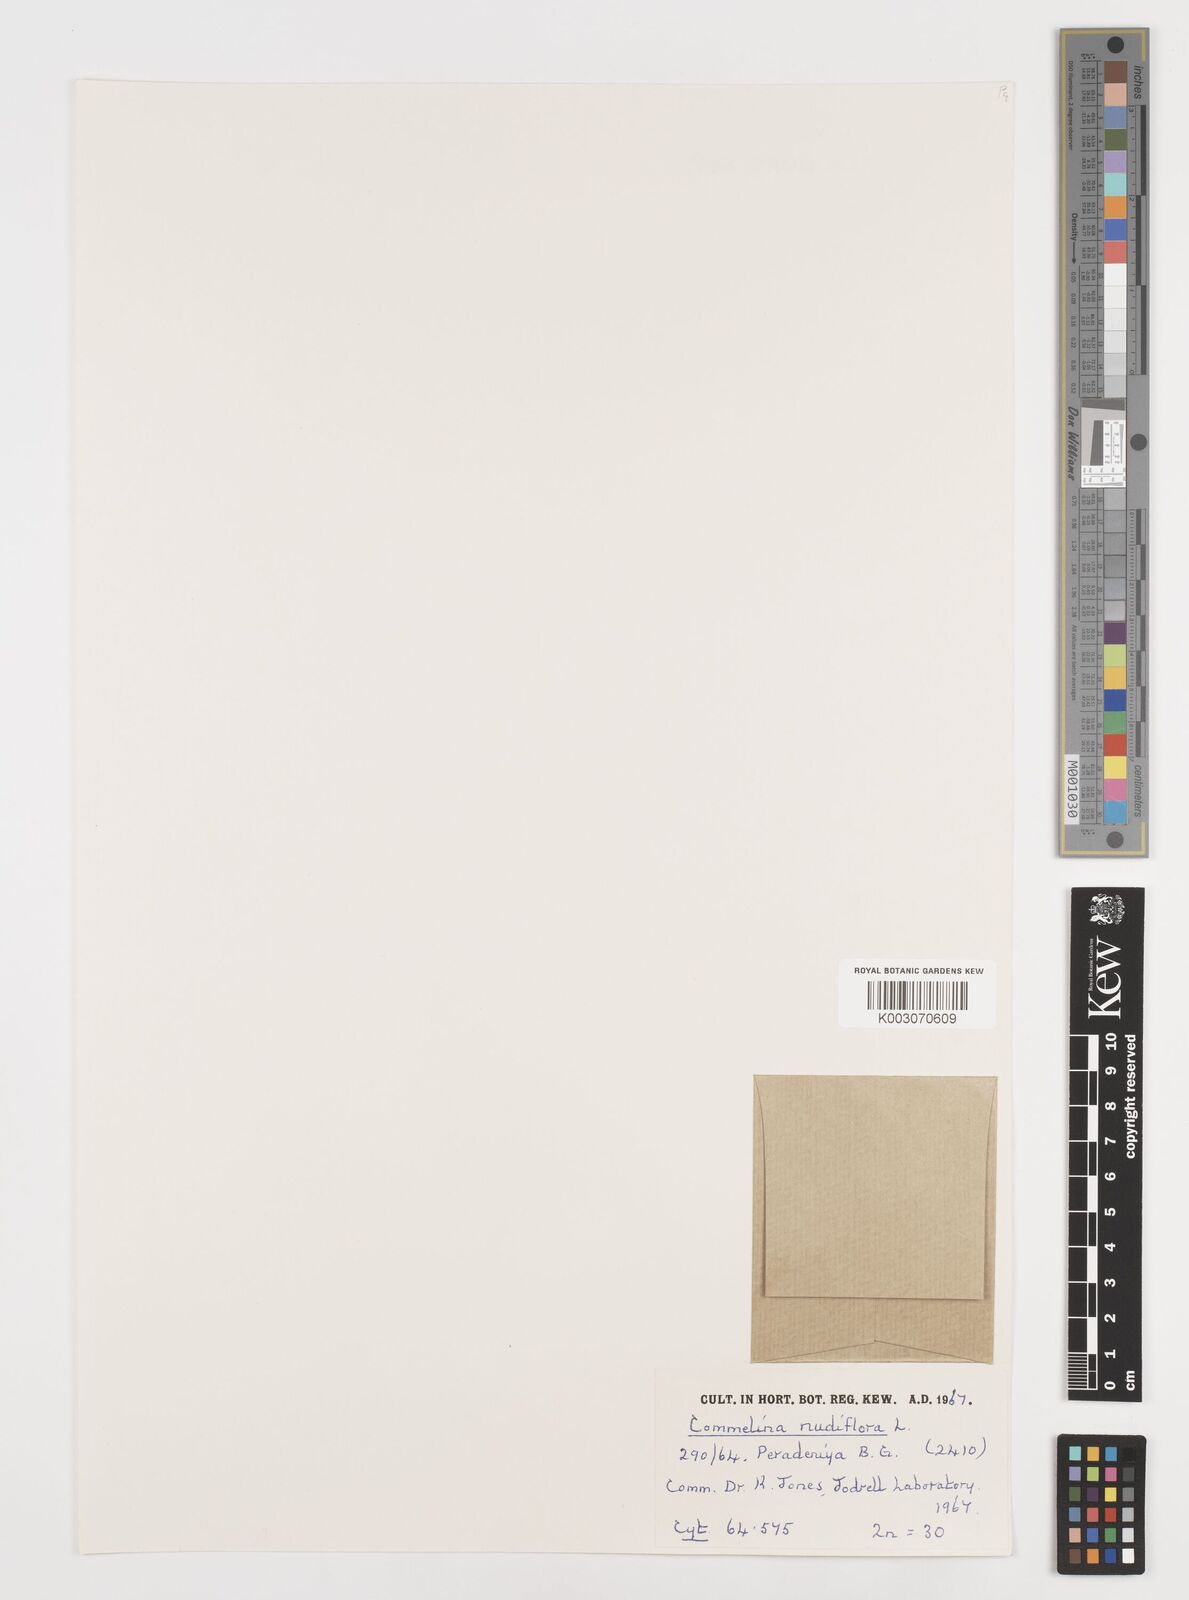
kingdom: Plantae
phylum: Tracheophyta
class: Liliopsida
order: Commelinales
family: Commelinaceae
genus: Commelina
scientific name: Commelina clavata
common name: Willow leaved dayflower
